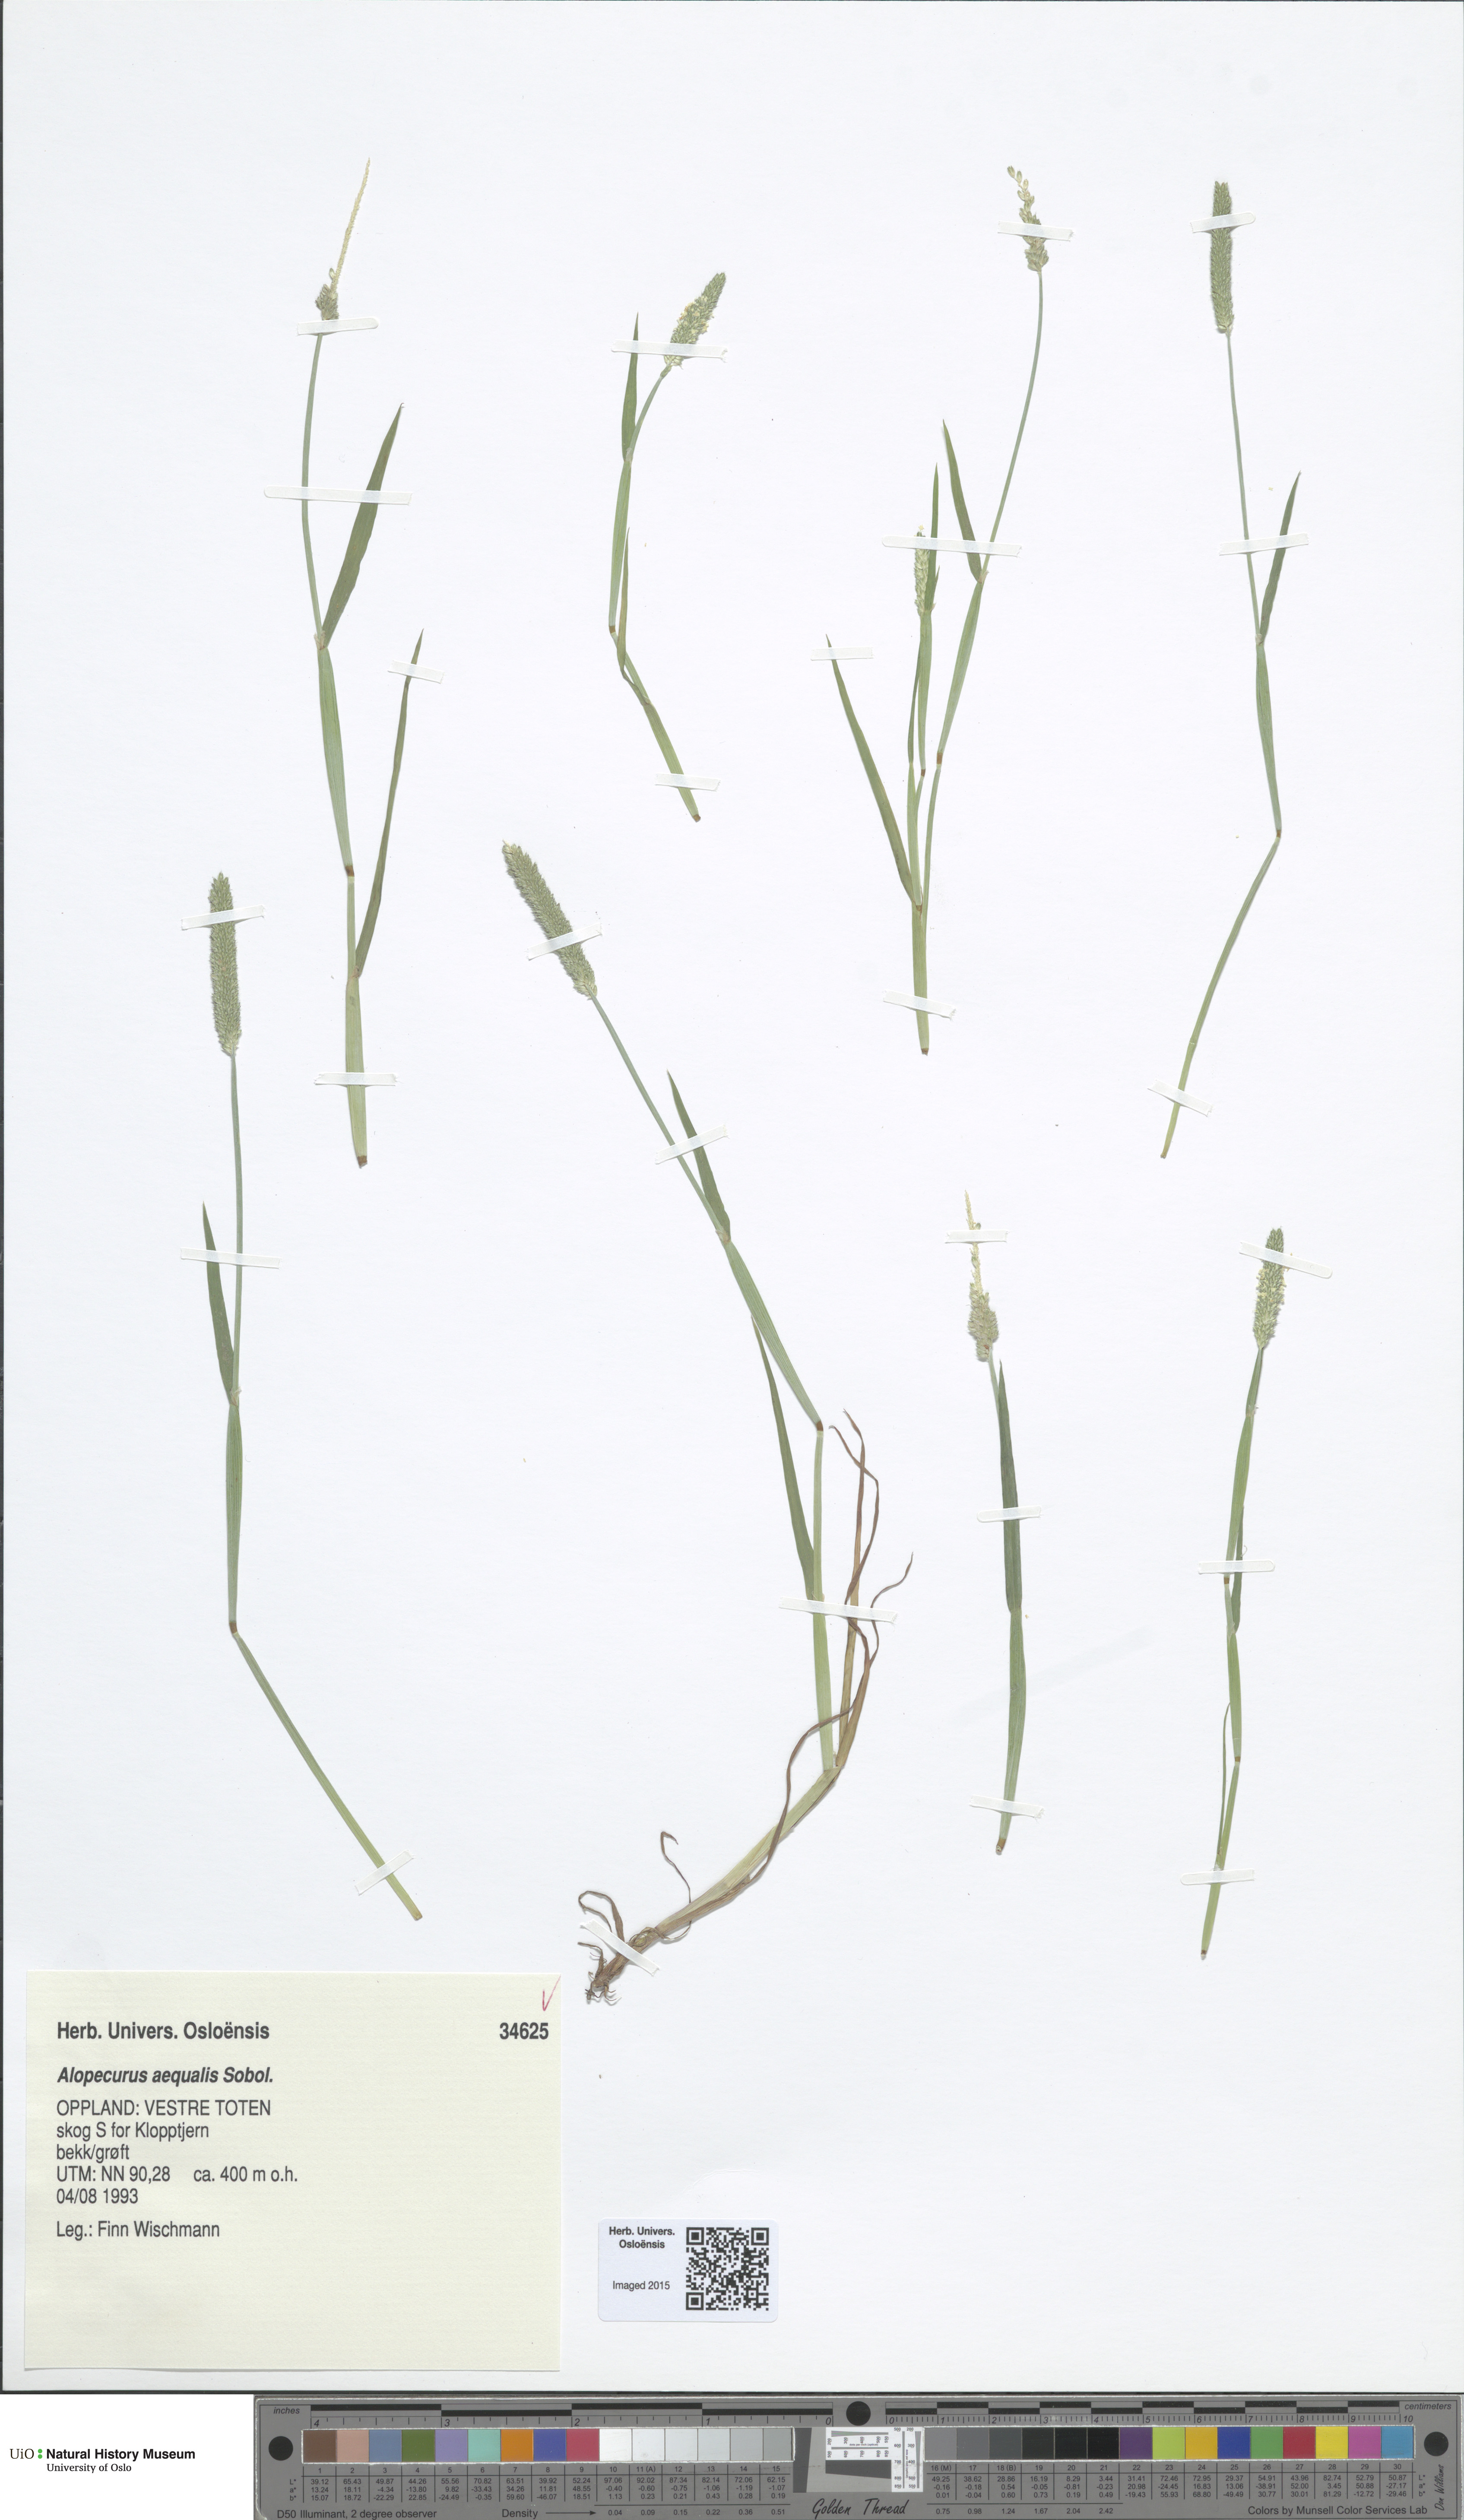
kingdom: Plantae
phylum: Tracheophyta
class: Liliopsida
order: Poales
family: Poaceae
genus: Alopecurus
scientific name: Alopecurus aequalis
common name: Orange foxtail
